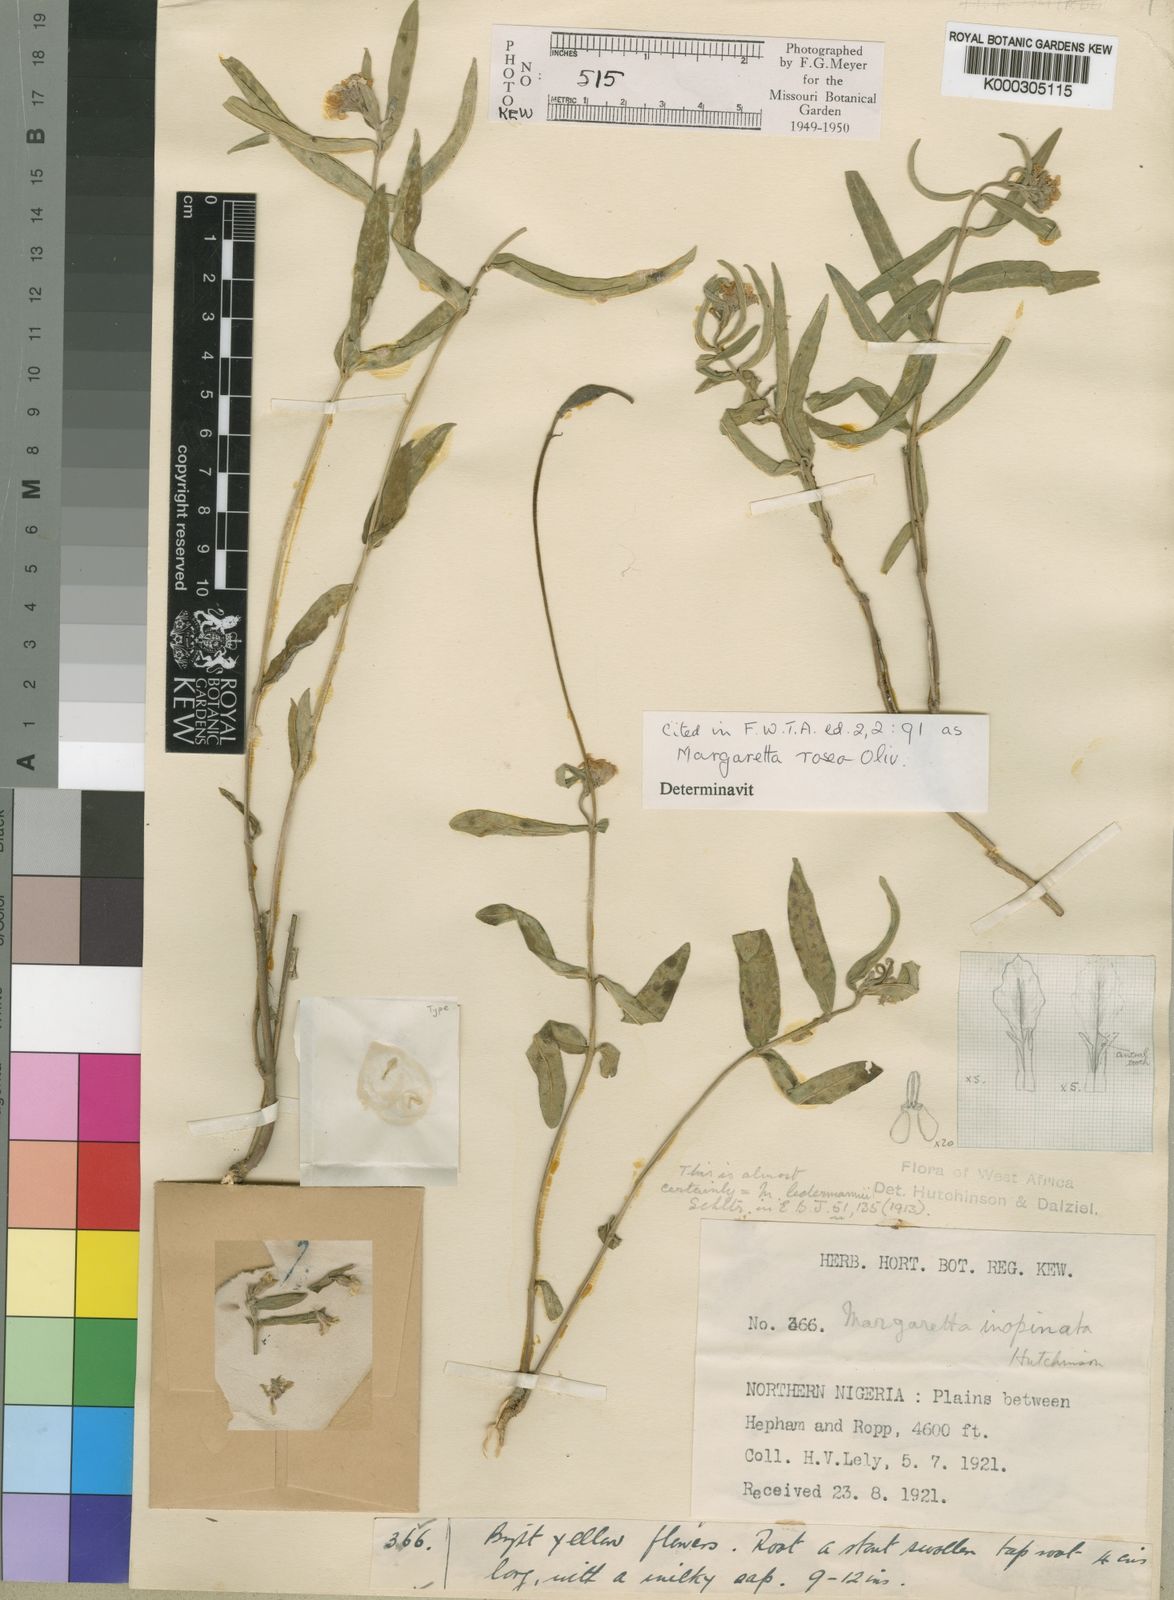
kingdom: Plantae
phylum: Tracheophyta
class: Magnoliopsida
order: Gentianales
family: Apocynaceae
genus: Margaretta
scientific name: Margaretta rosea
